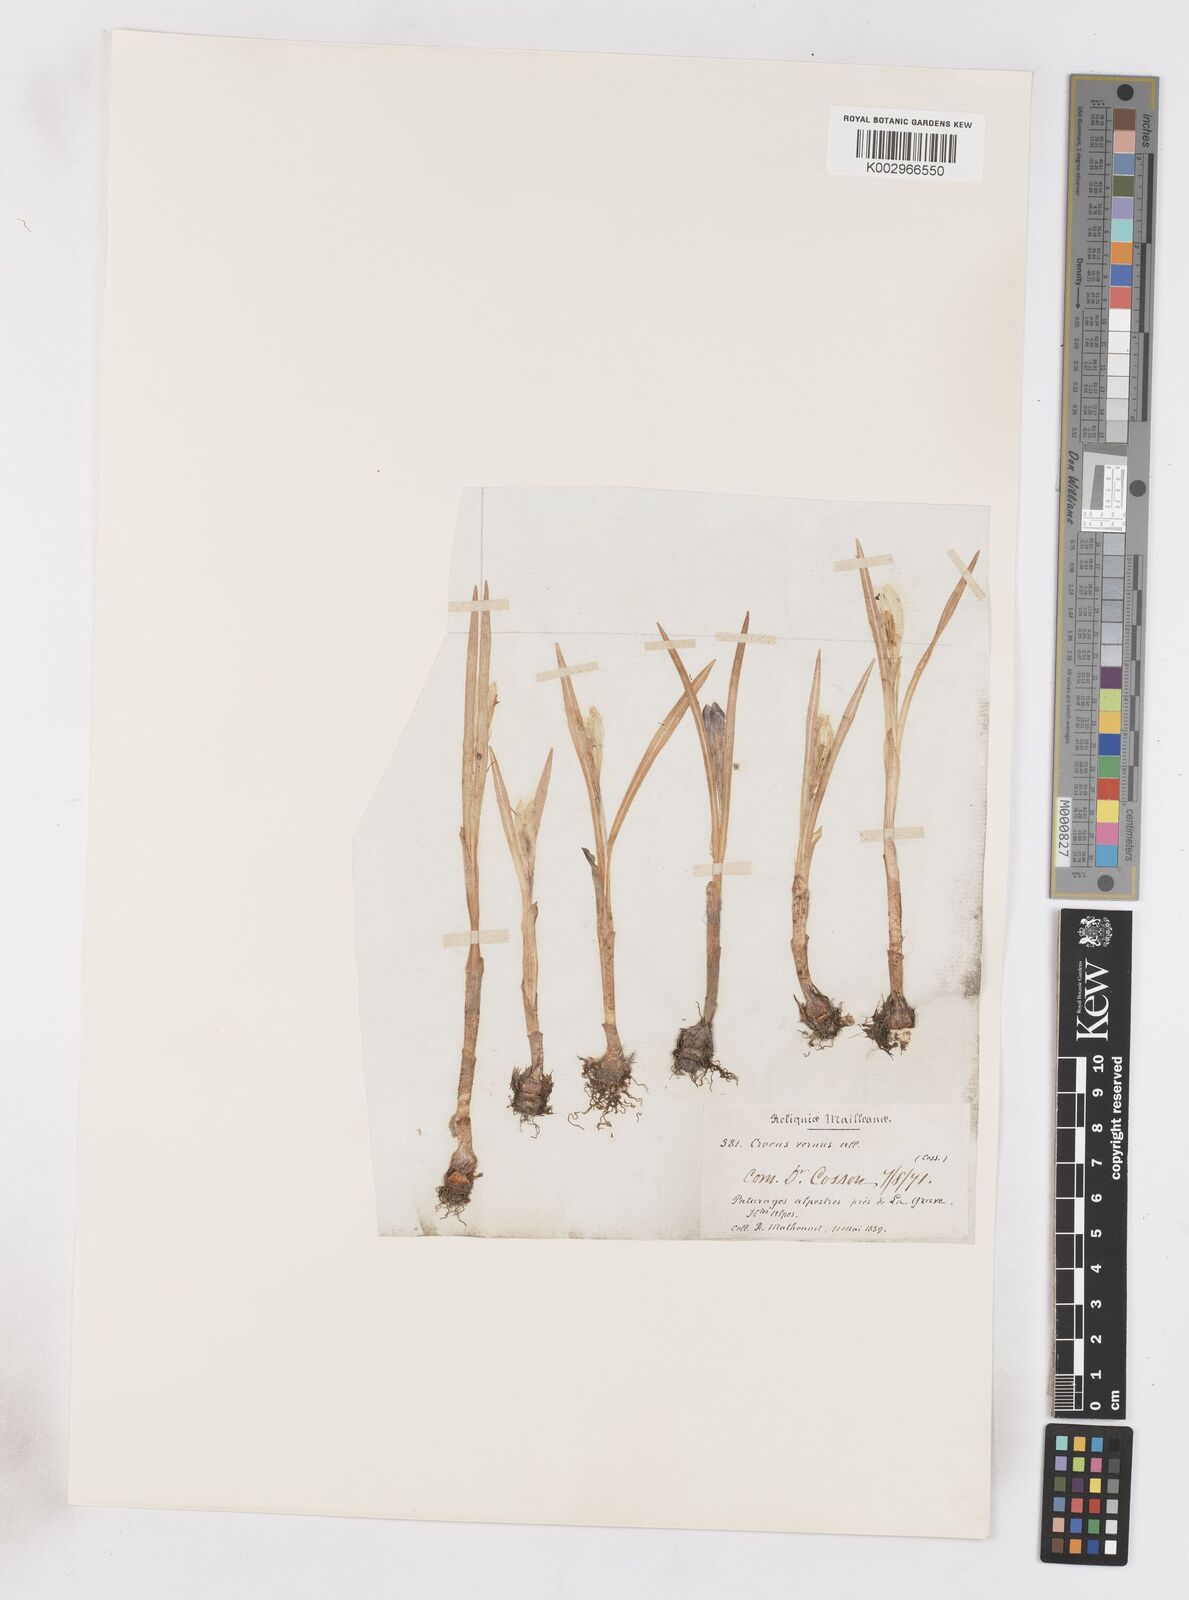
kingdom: Plantae
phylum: Tracheophyta
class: Liliopsida
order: Asparagales
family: Iridaceae
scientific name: Iridaceae
